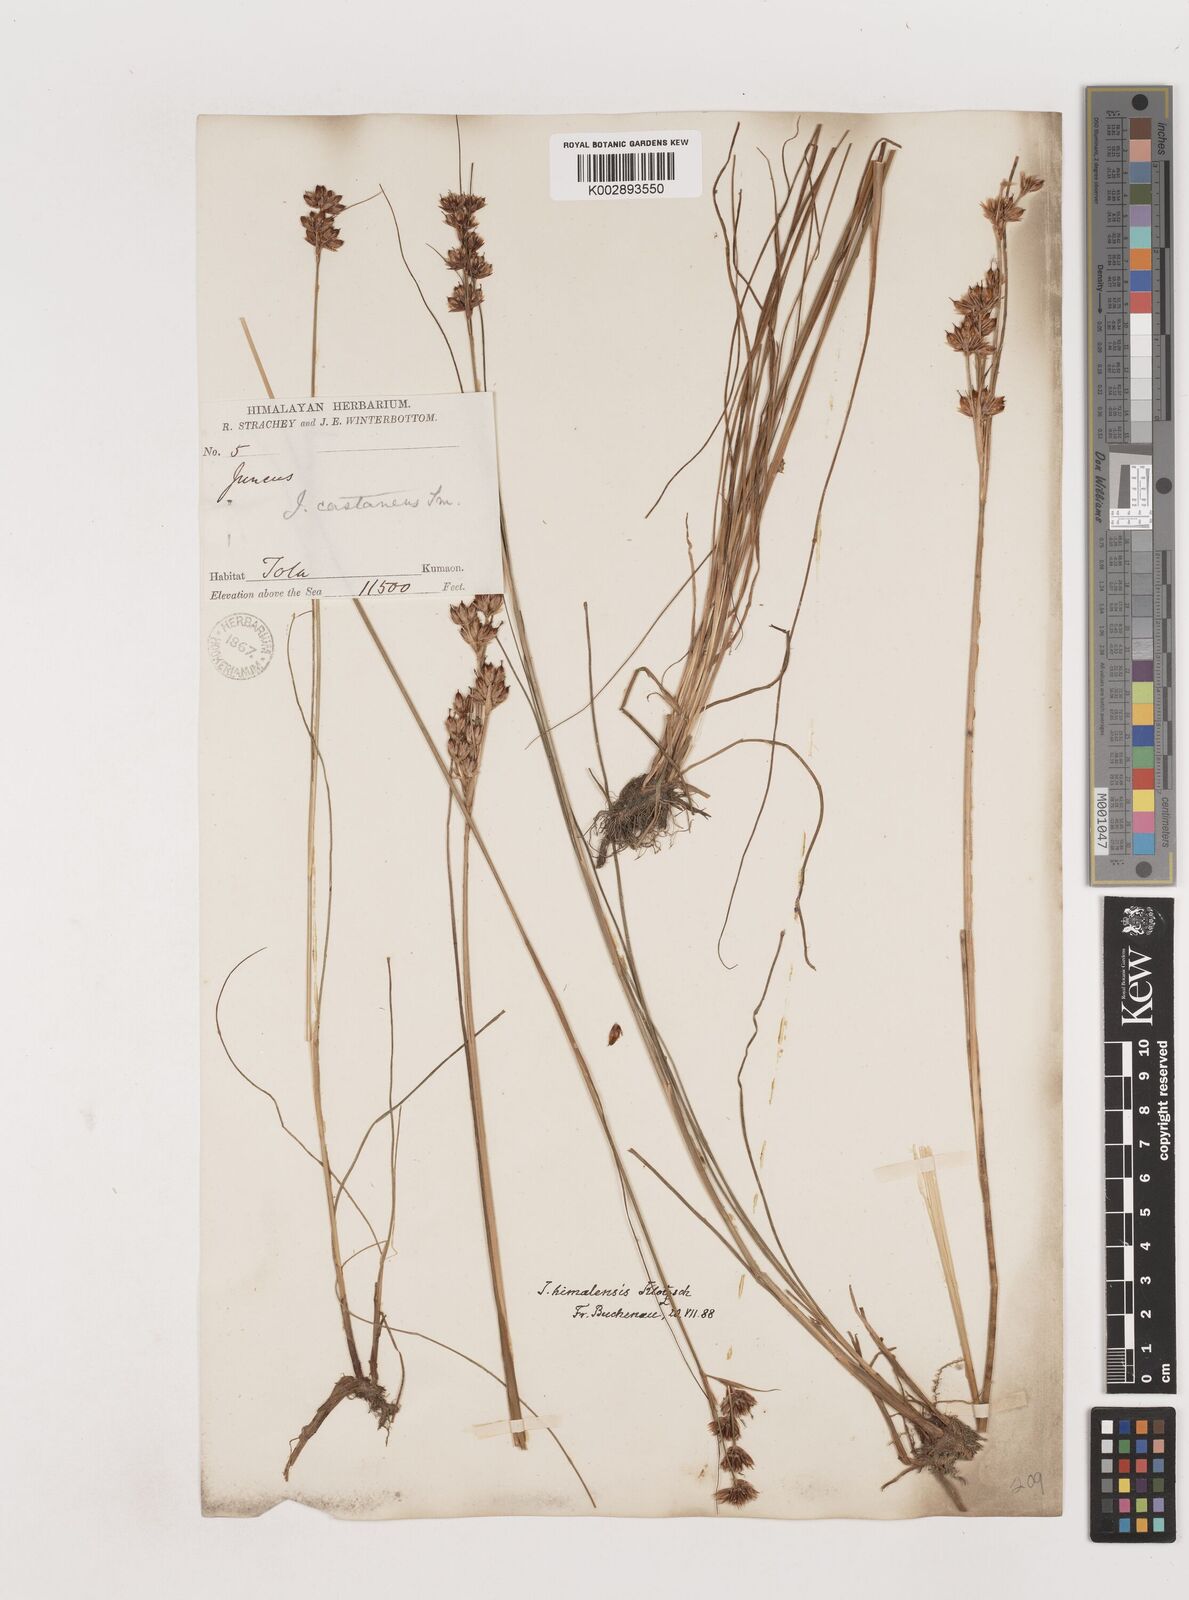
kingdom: Plantae
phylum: Tracheophyta
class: Liliopsida
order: Poales
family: Juncaceae
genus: Juncus
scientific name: Juncus himalensis
